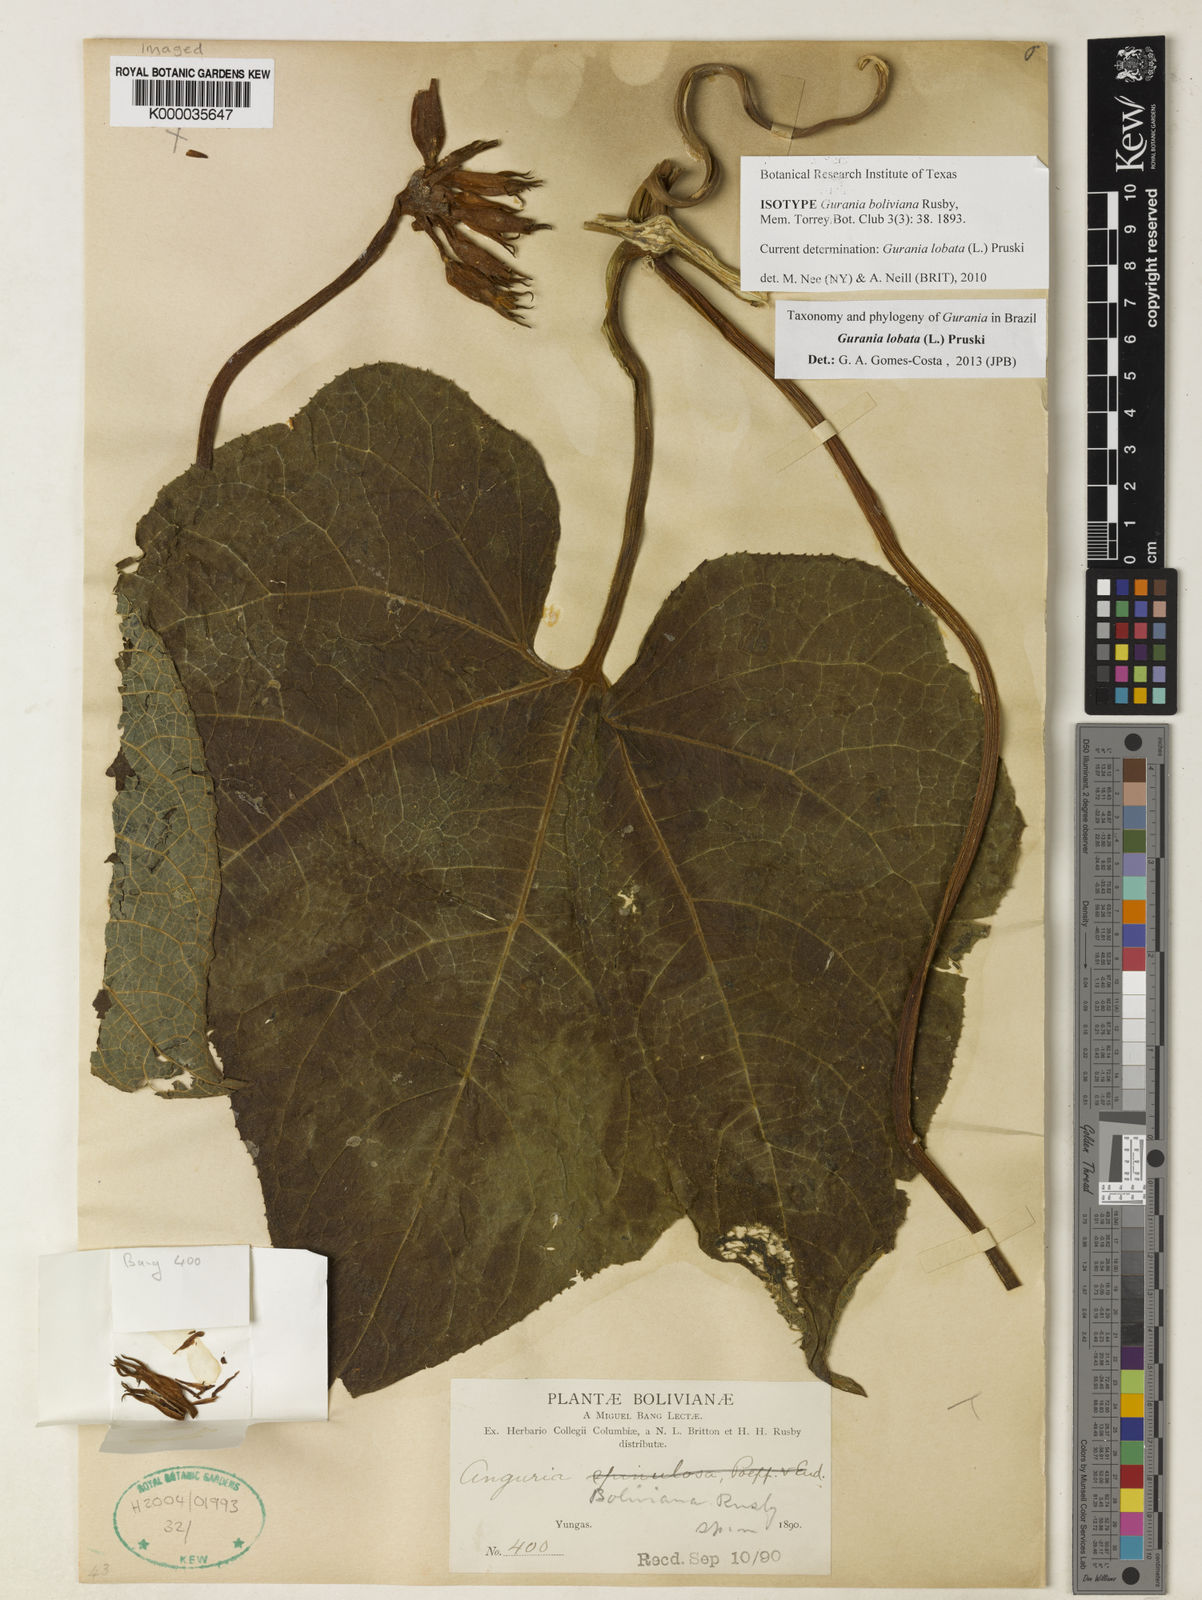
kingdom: Plantae
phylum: Tracheophyta
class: Magnoliopsida
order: Cucurbitales
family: Cucurbitaceae
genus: Gurania
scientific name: Gurania lobata
